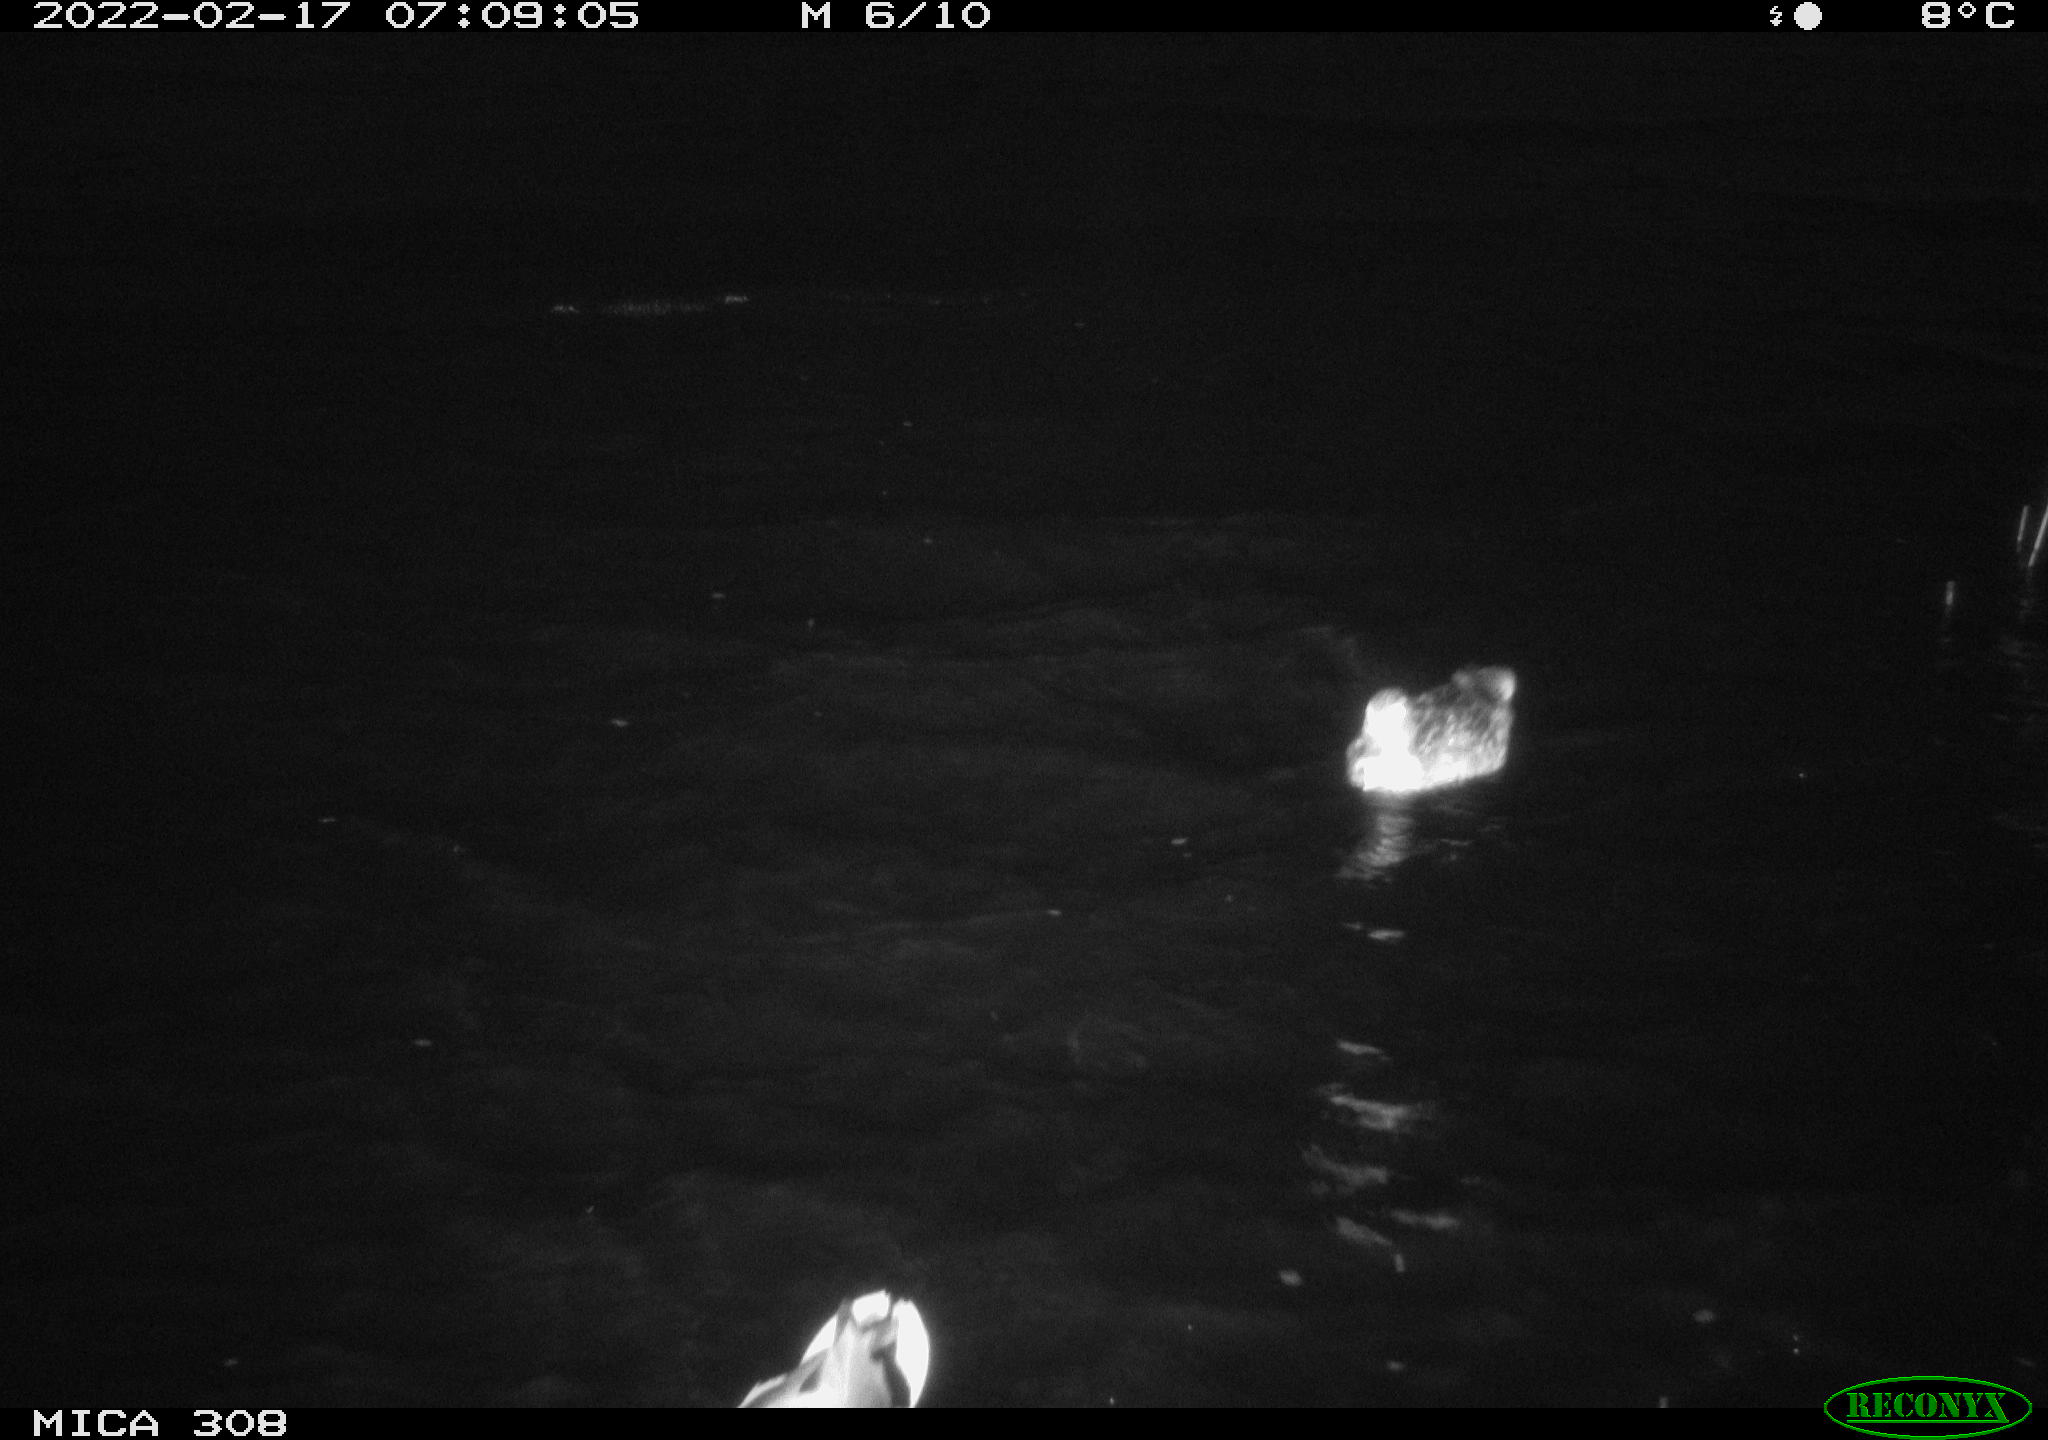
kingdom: Animalia
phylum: Chordata
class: Aves
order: Anseriformes
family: Anatidae
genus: Anas
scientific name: Anas platyrhynchos
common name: Mallard
